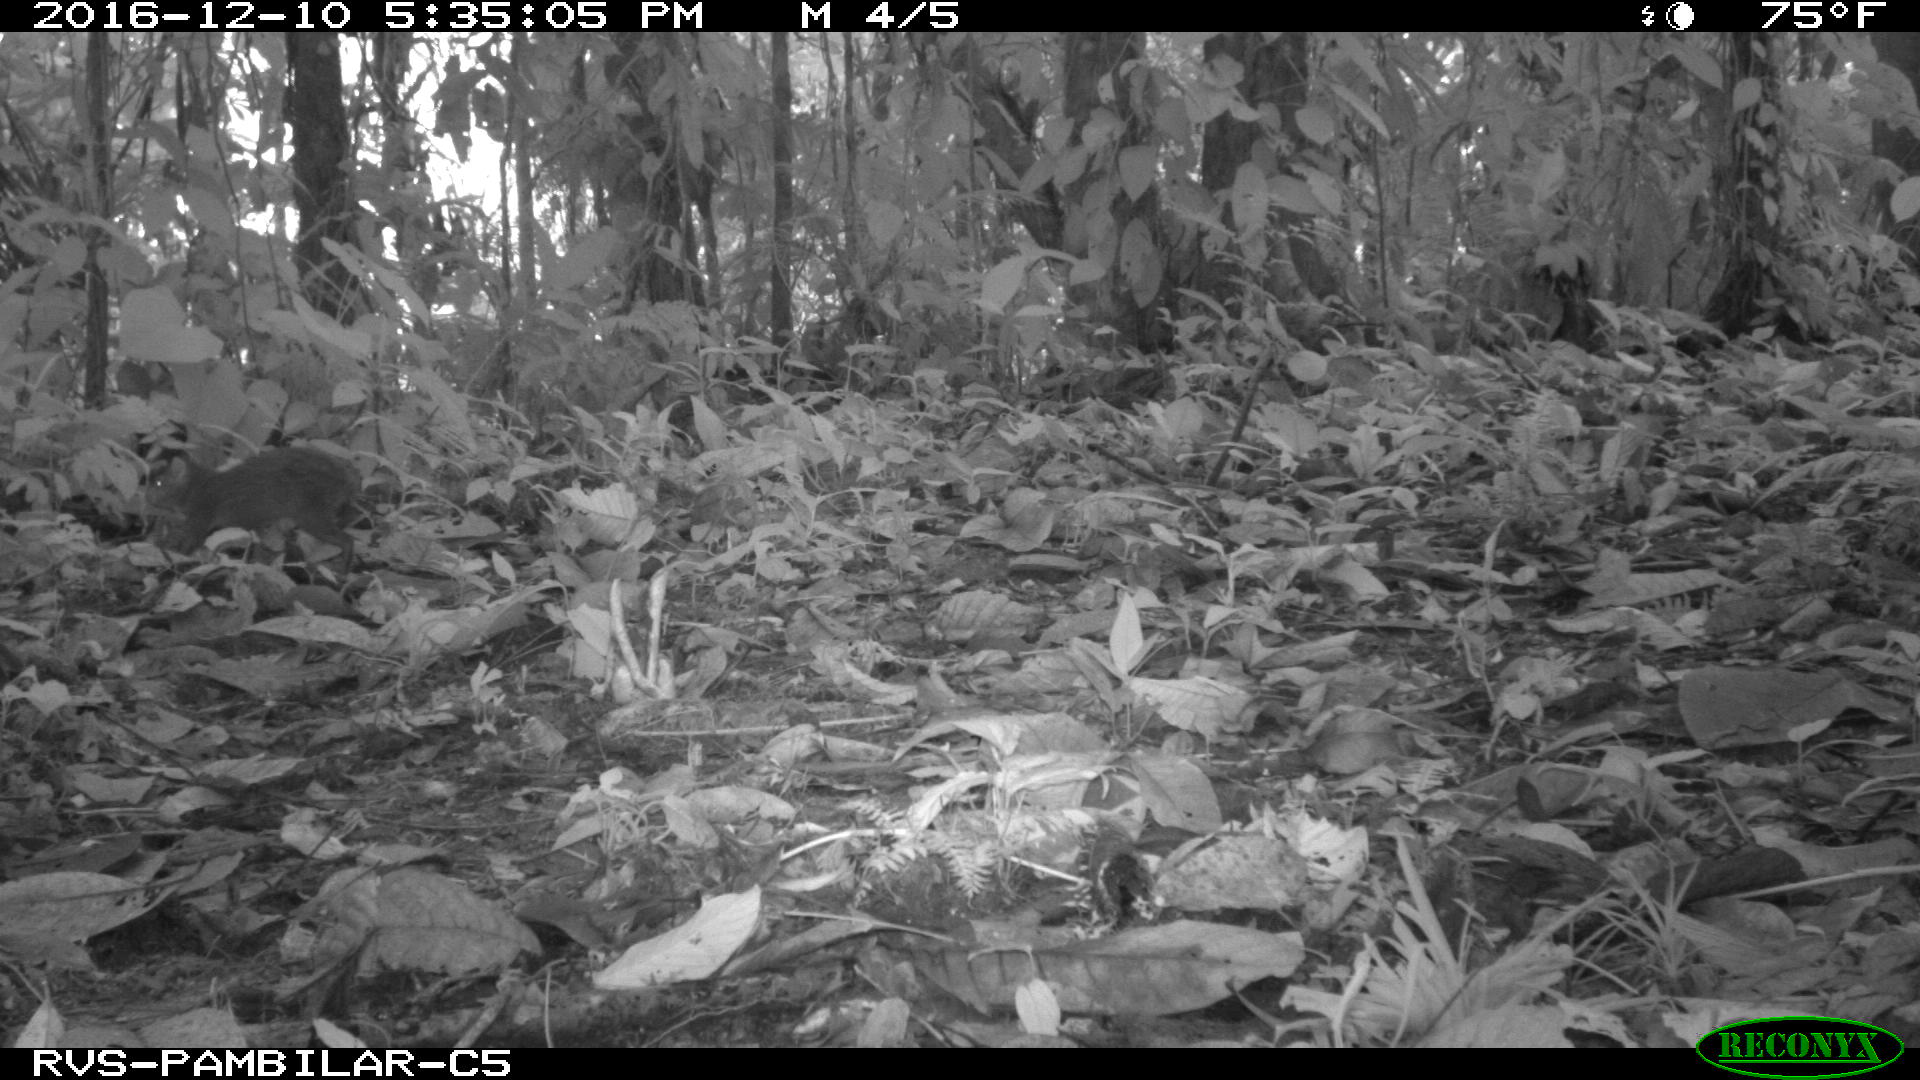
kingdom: Animalia
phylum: Chordata
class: Mammalia
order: Rodentia
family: Dasyproctidae
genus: Dasyprocta
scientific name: Dasyprocta punctata
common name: Central american agouti
